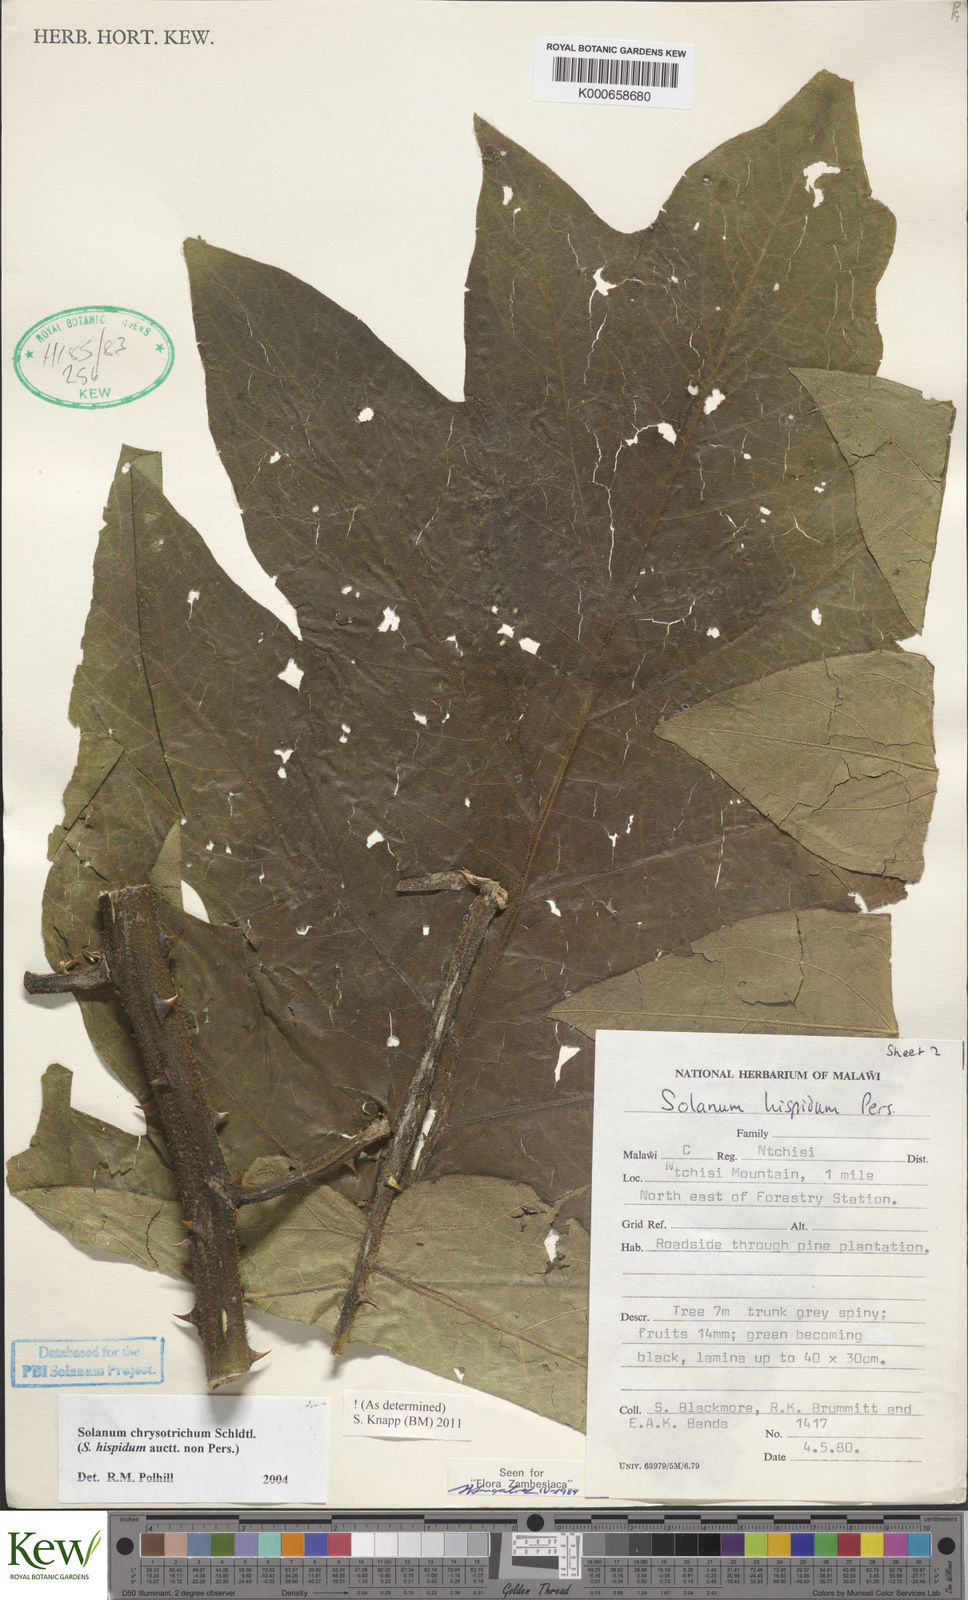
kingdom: Plantae
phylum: Tracheophyta
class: Magnoliopsida
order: Solanales
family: Solanaceae
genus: Solanum
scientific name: Solanum chrysotrichum
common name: Nightshade
